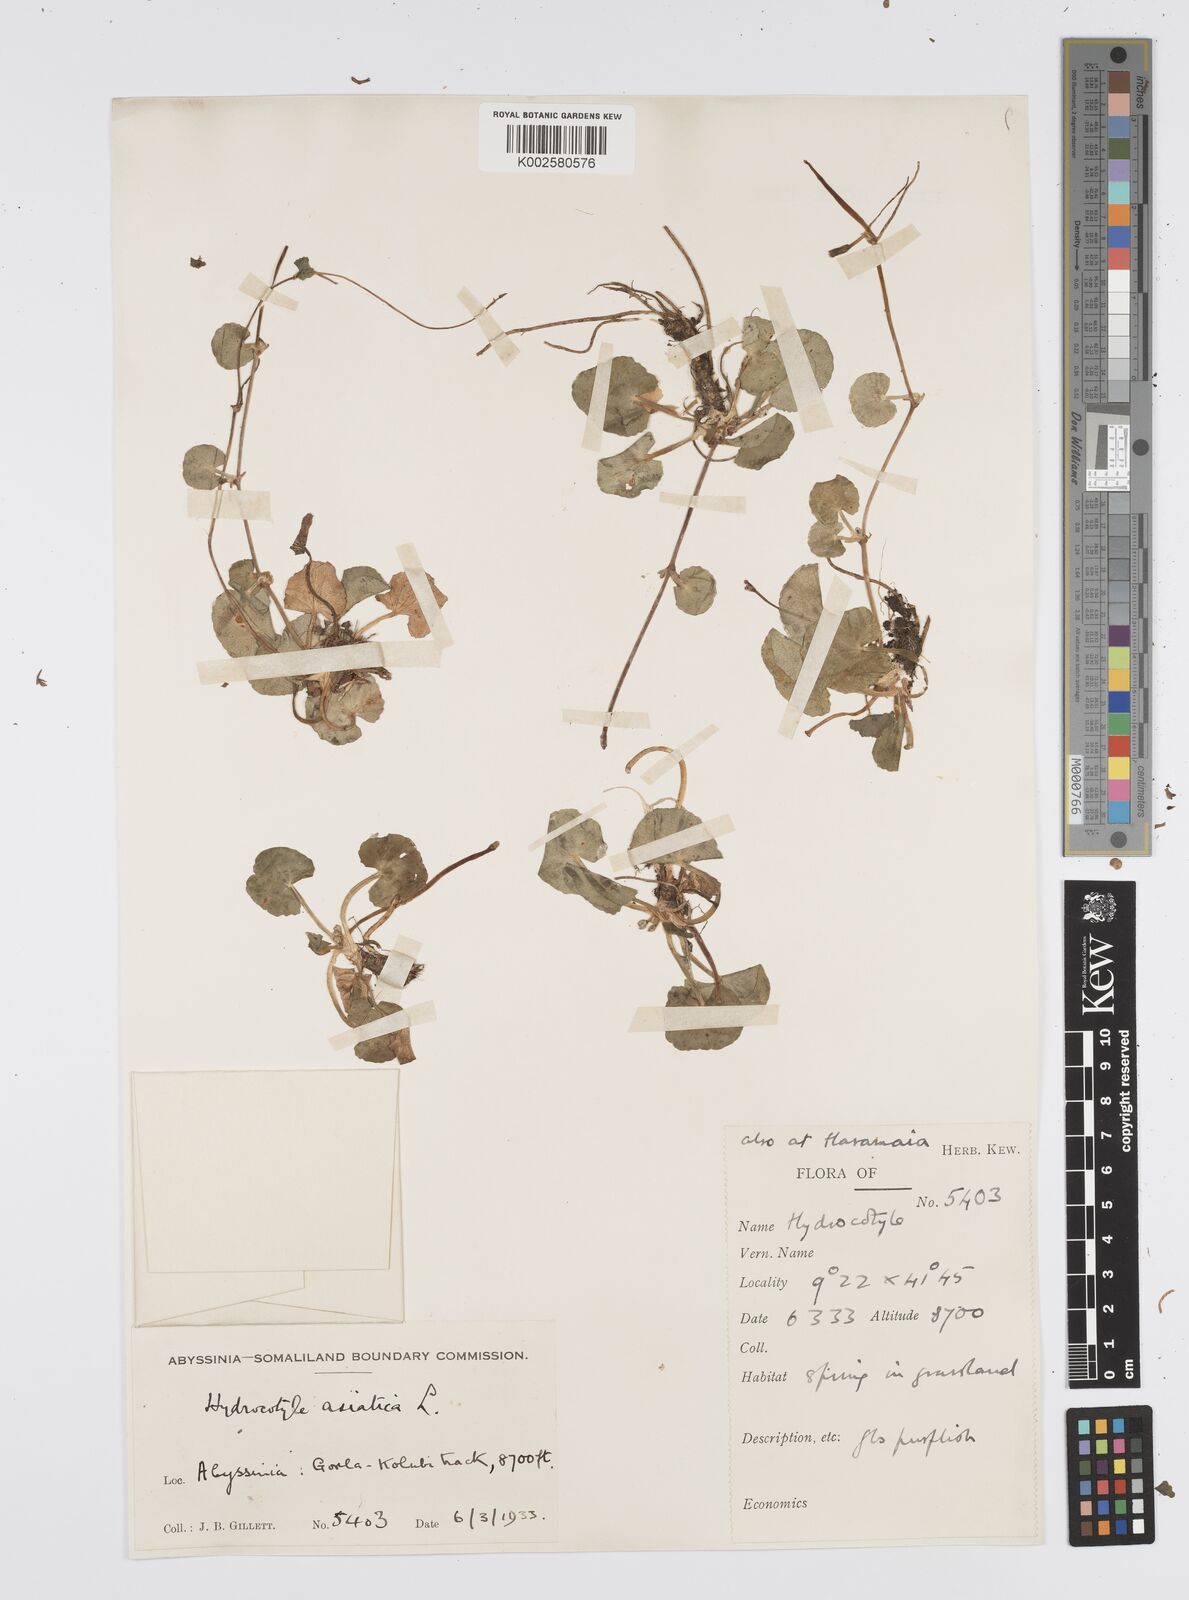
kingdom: Plantae
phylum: Tracheophyta
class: Magnoliopsida
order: Apiales
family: Apiaceae
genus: Centella
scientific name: Centella asiatica
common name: Spadeleaf
